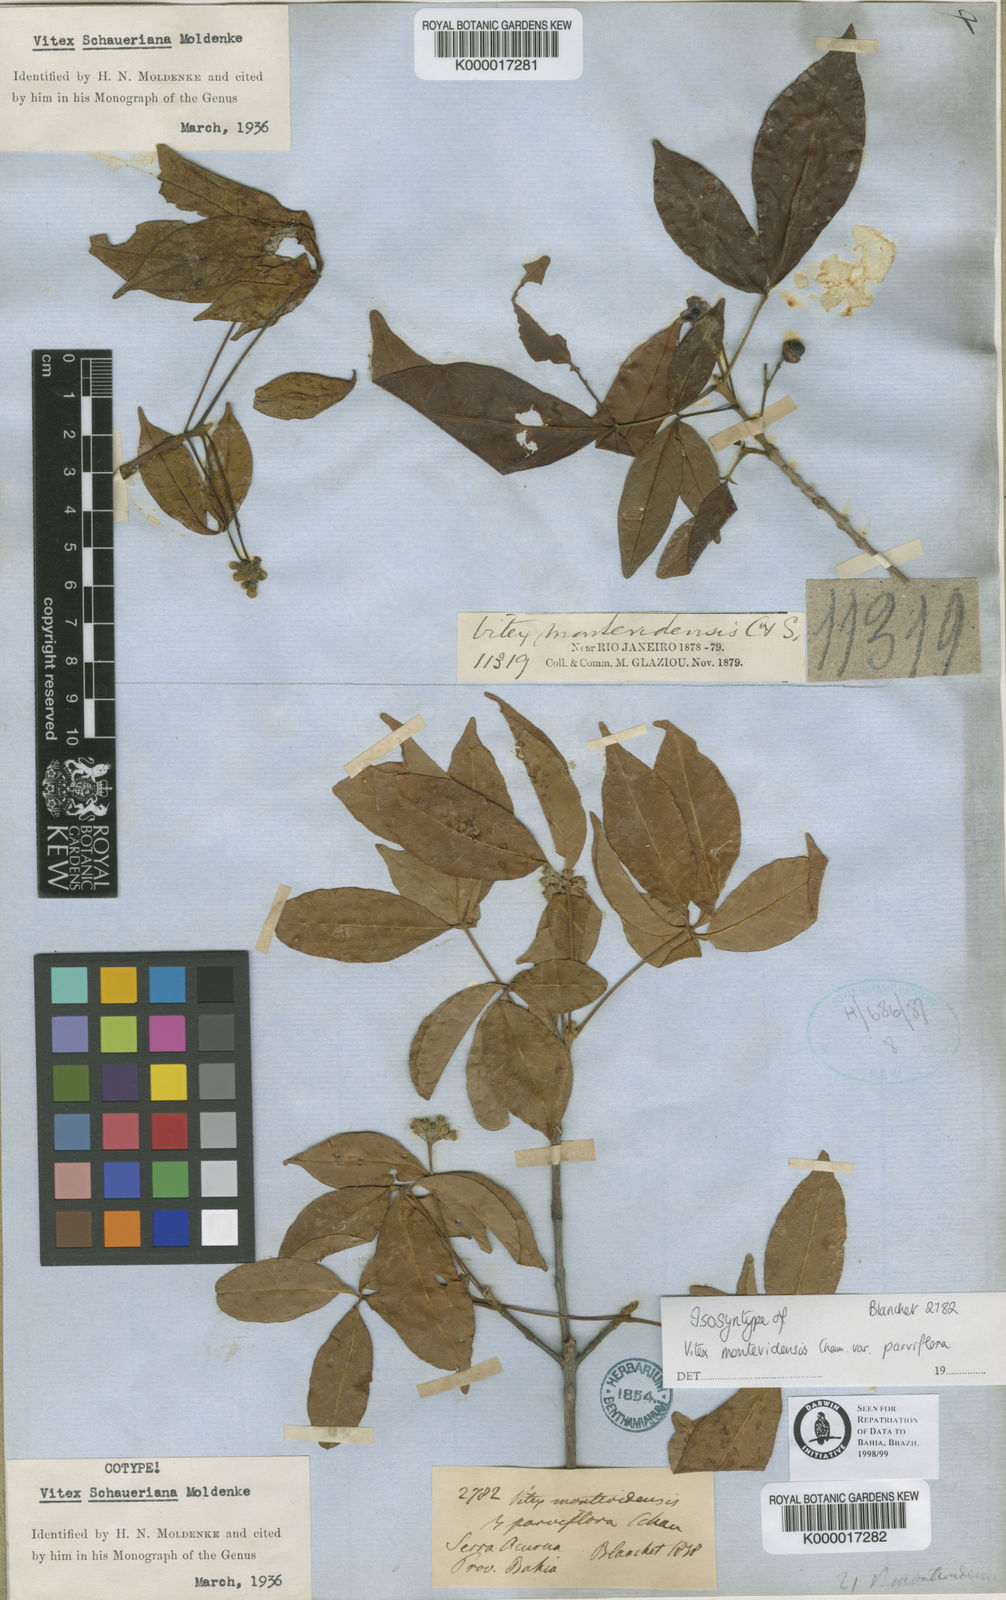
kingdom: Plantae
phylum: Tracheophyta
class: Magnoliopsida
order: Lamiales
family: Lamiaceae
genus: Vitex
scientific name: Vitex schaueriana
